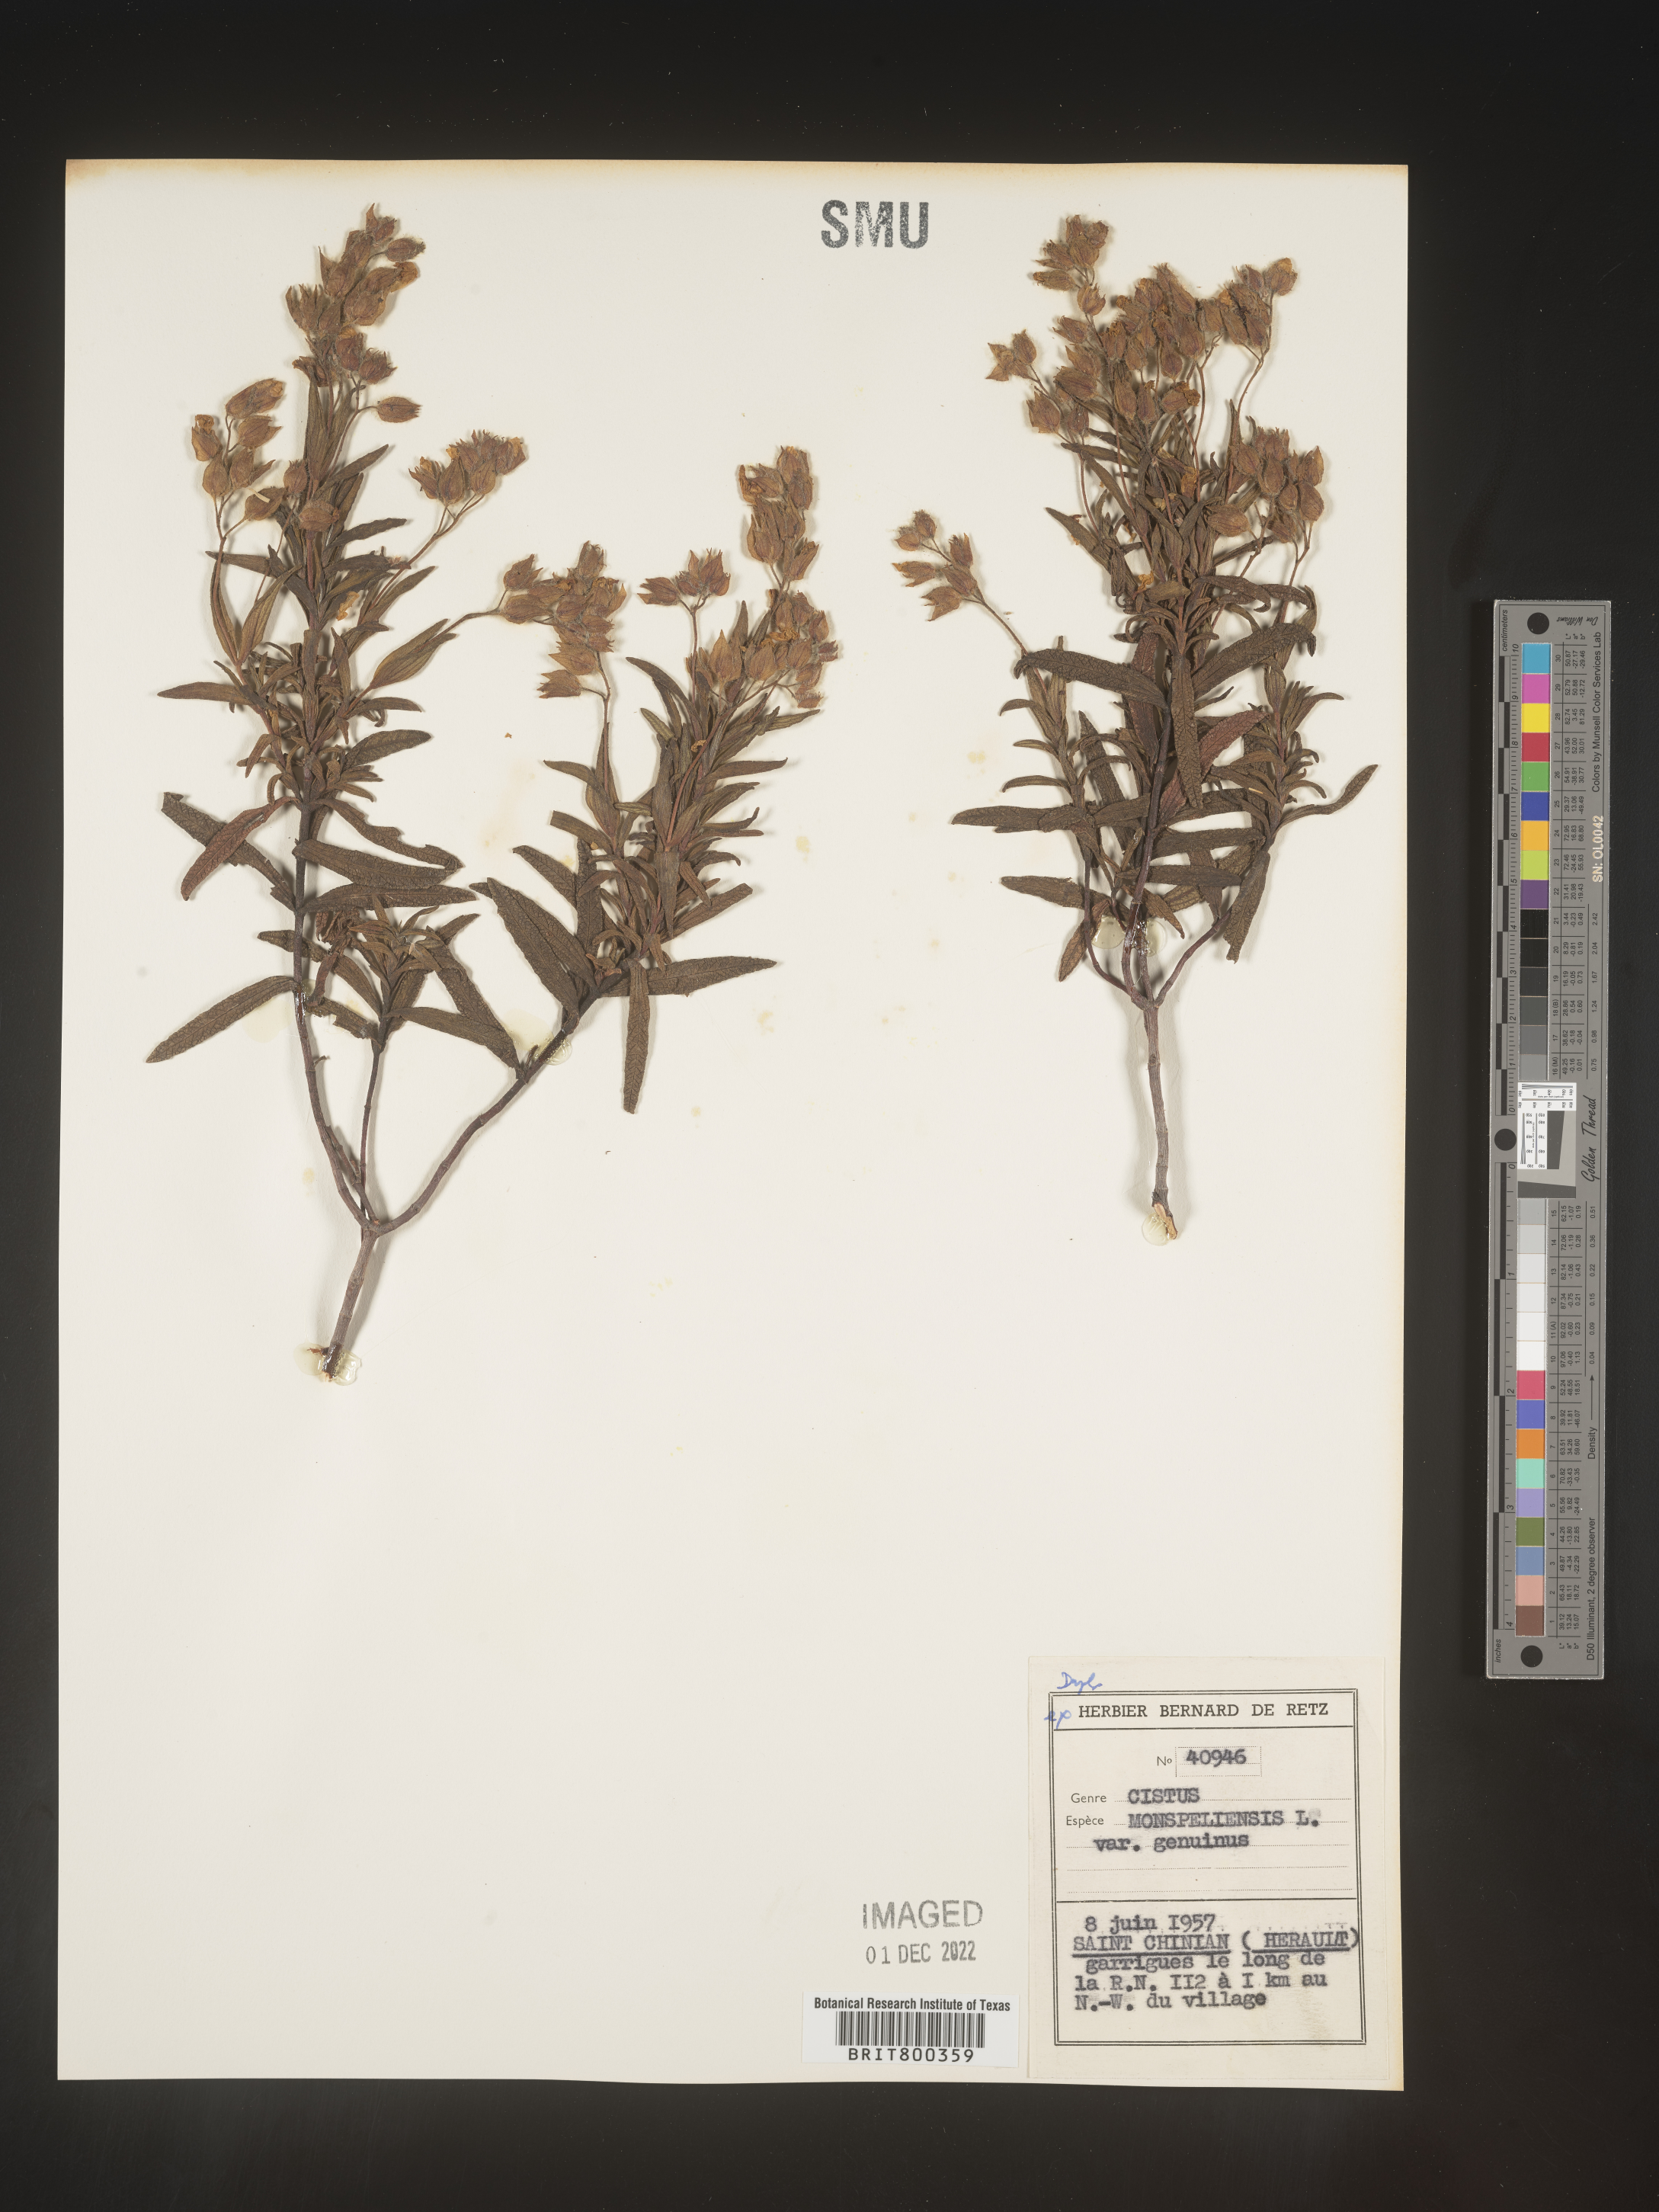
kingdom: Plantae
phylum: Tracheophyta
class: Magnoliopsida
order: Malvales
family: Cistaceae
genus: Cistus
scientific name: Cistus
